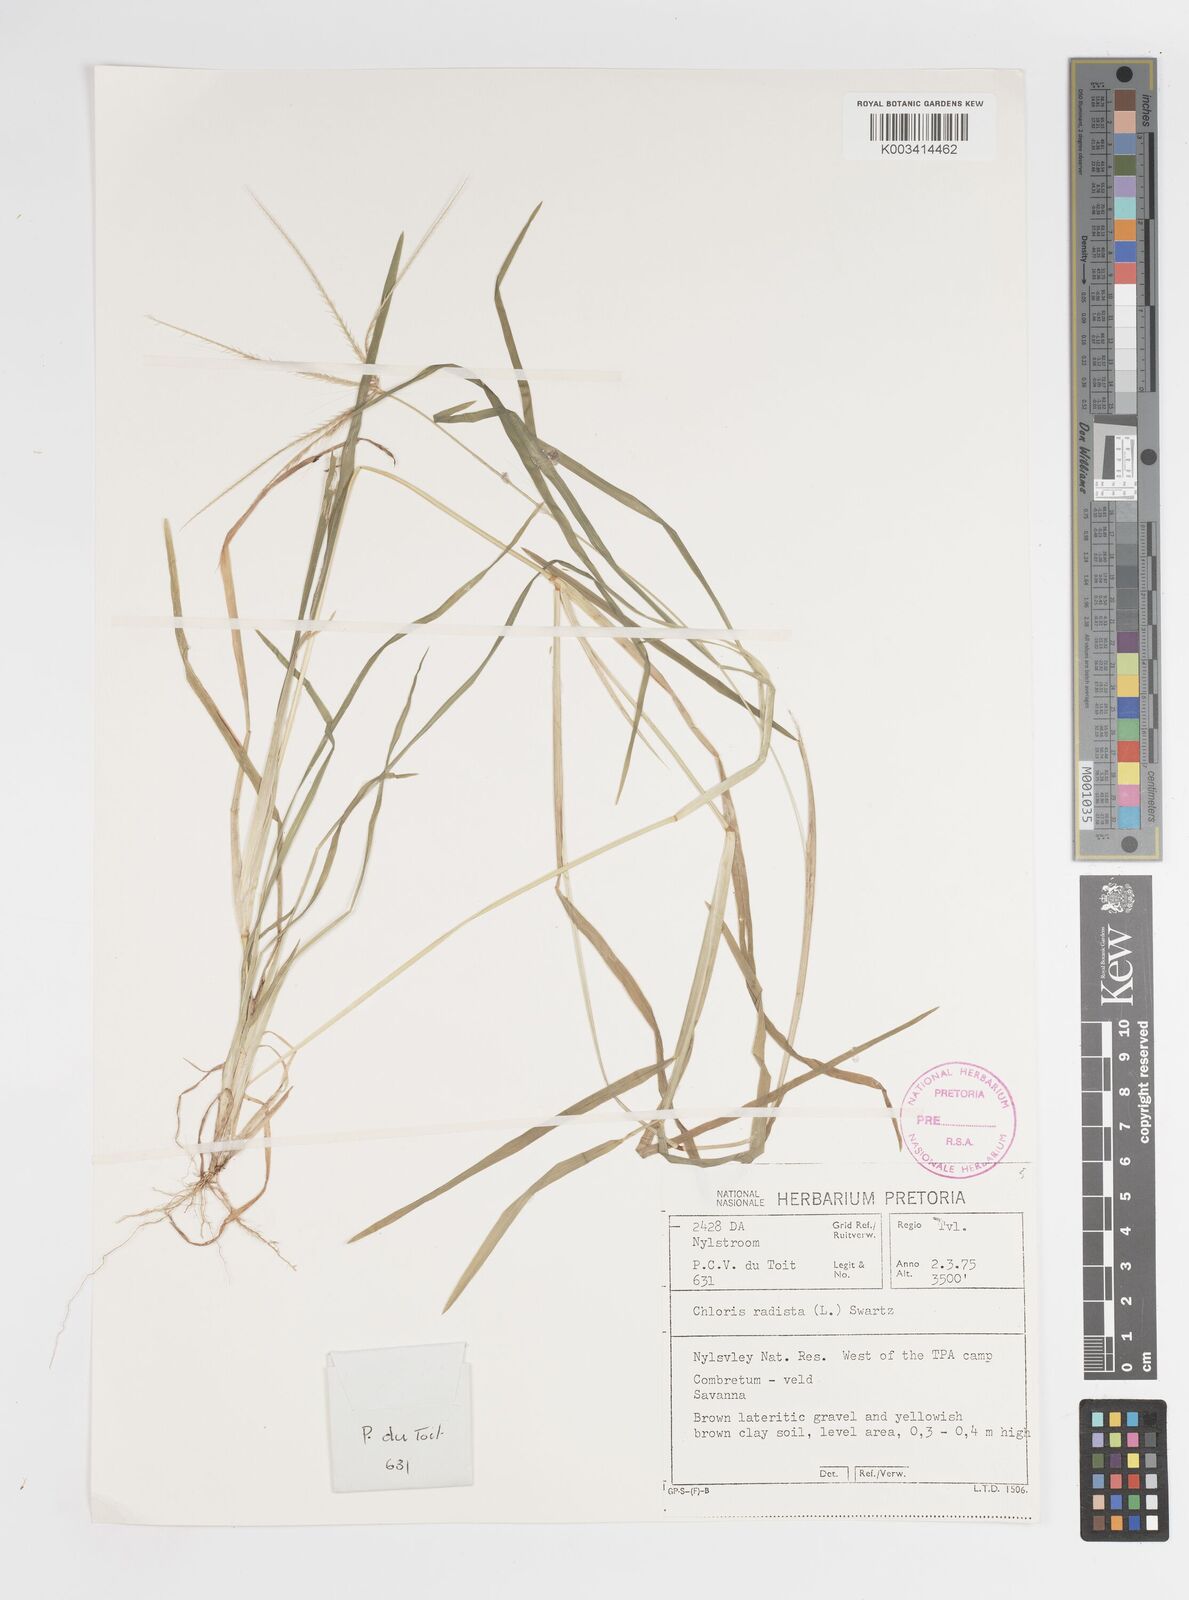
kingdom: Plantae
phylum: Tracheophyta
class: Liliopsida
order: Poales
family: Poaceae
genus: Chloris
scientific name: Chloris diluta
